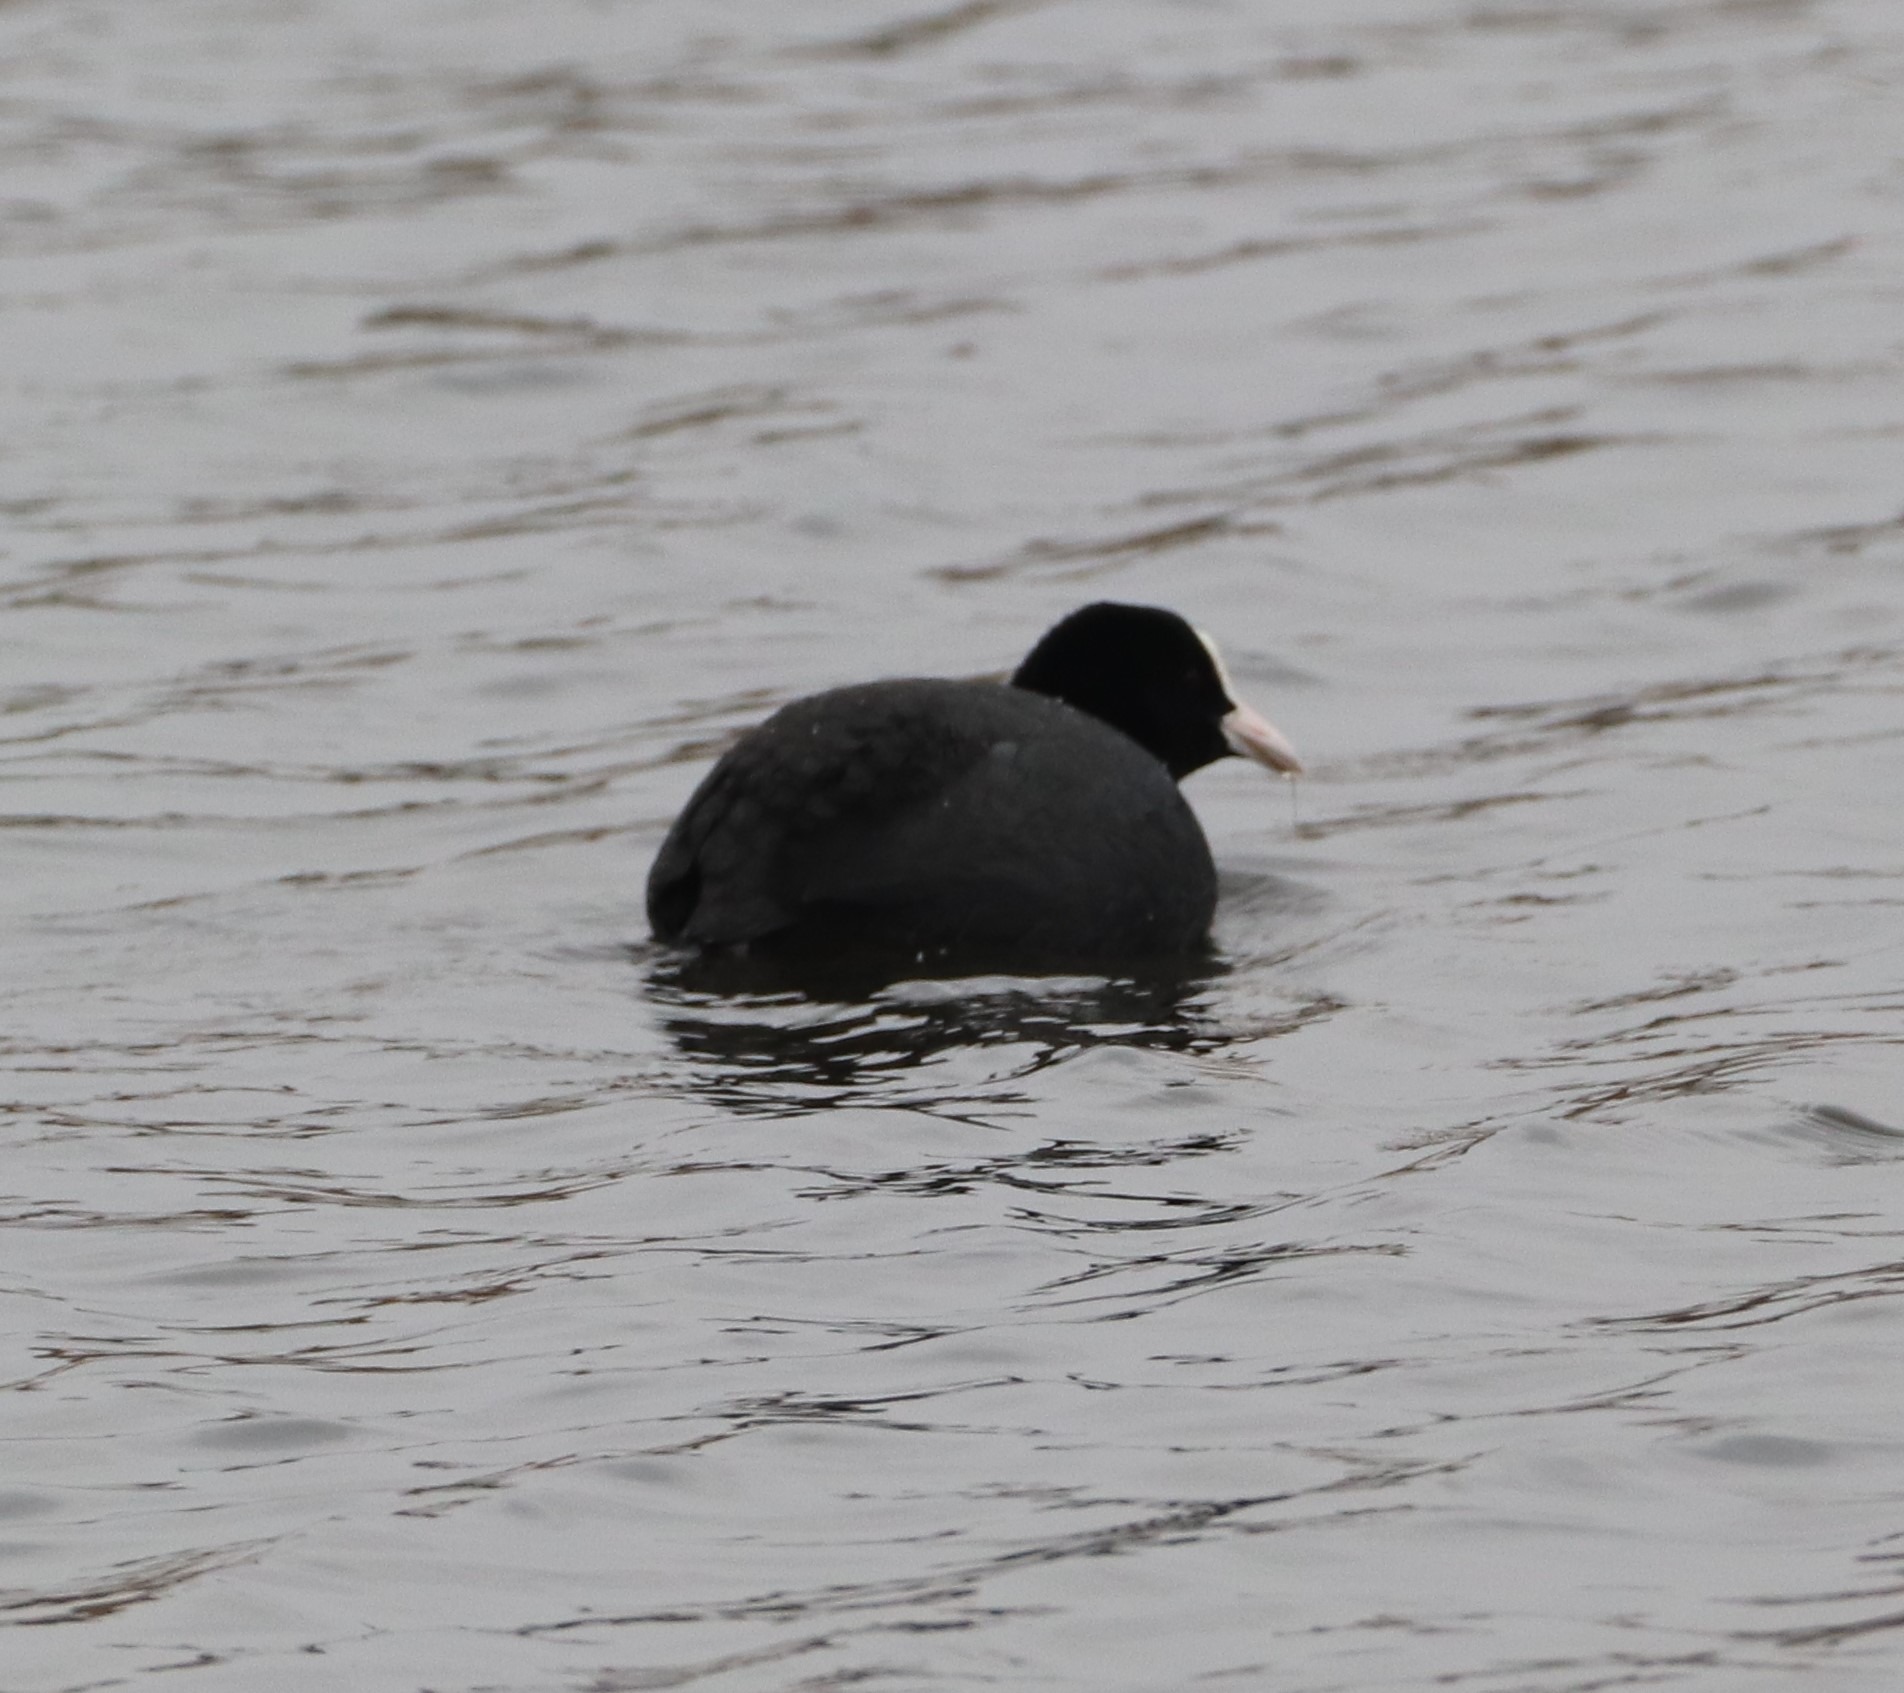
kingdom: Animalia
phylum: Chordata
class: Aves
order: Gruiformes
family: Rallidae
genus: Fulica
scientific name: Fulica atra
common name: Blishøne
